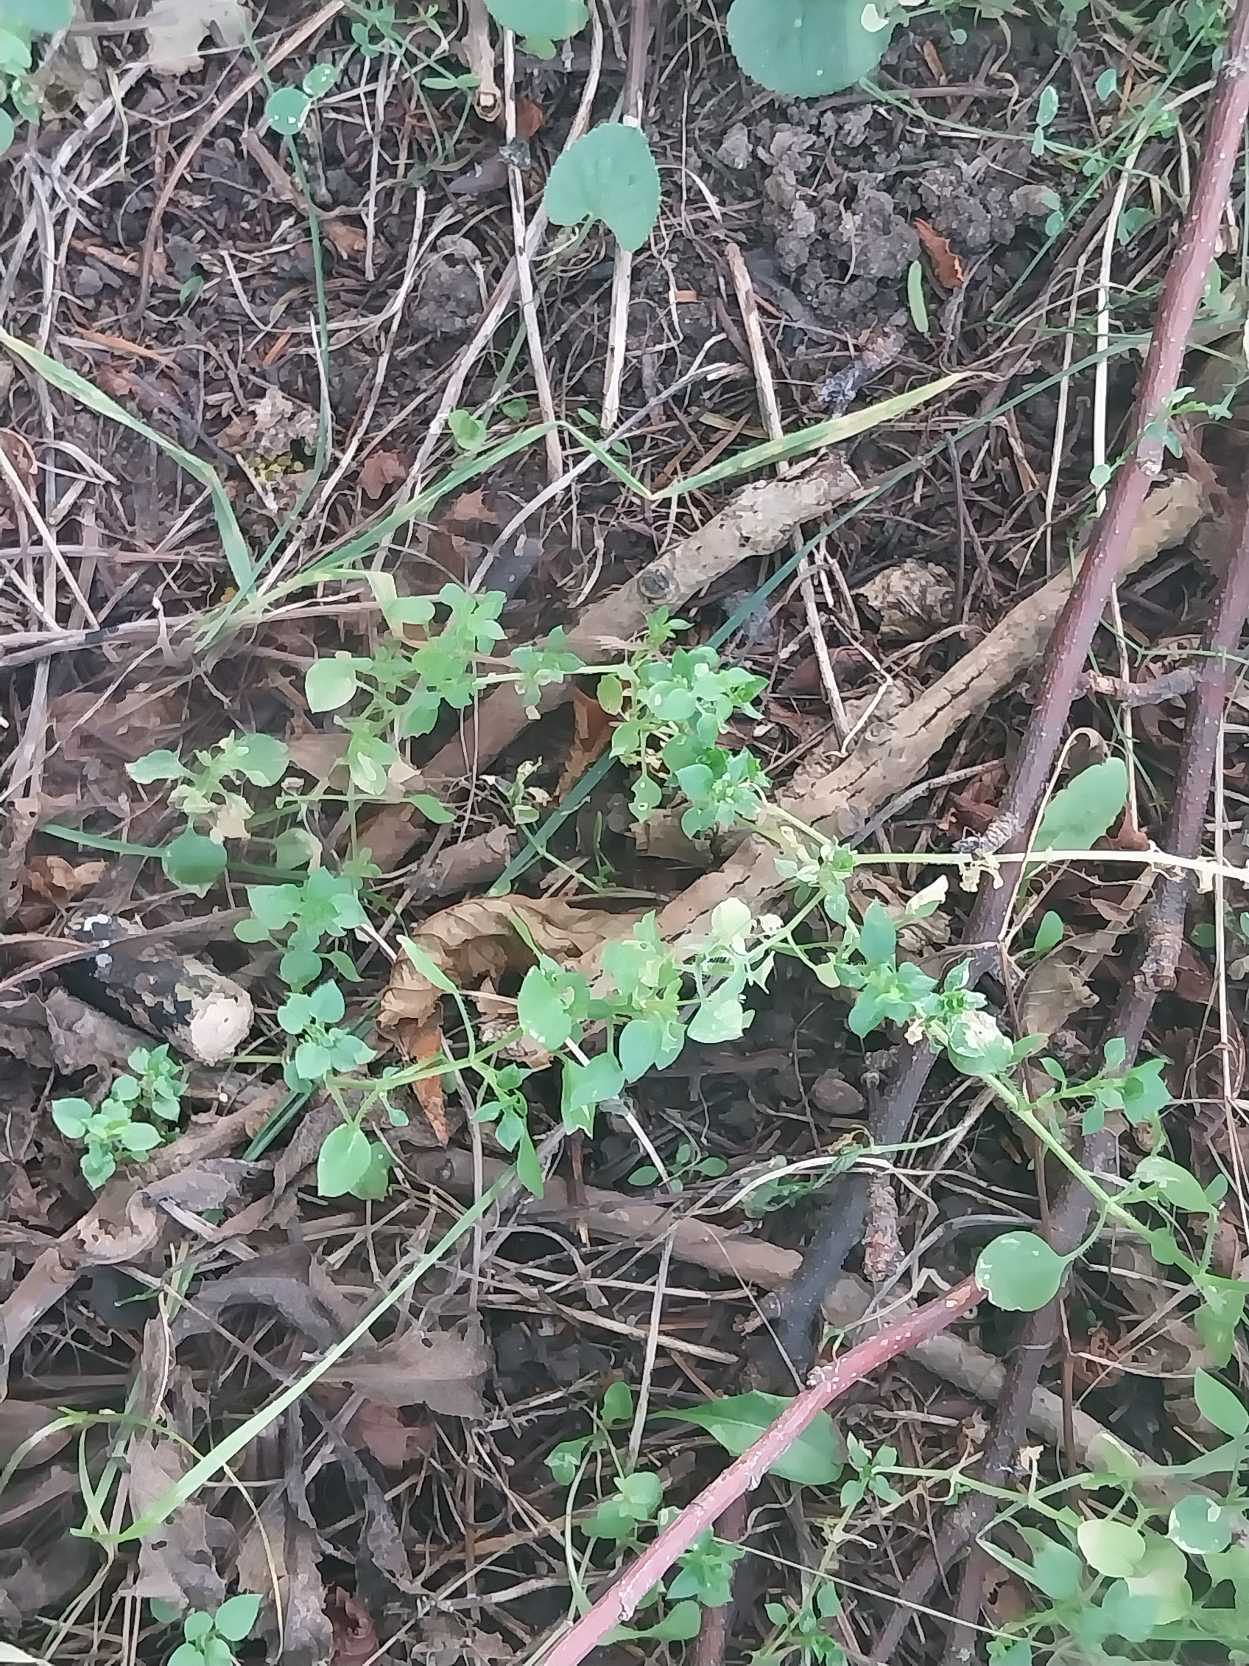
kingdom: Plantae
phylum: Tracheophyta
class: Magnoliopsida
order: Caryophyllales
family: Caryophyllaceae
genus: Stellaria
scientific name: Stellaria media
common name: Almindelig fuglegræs
